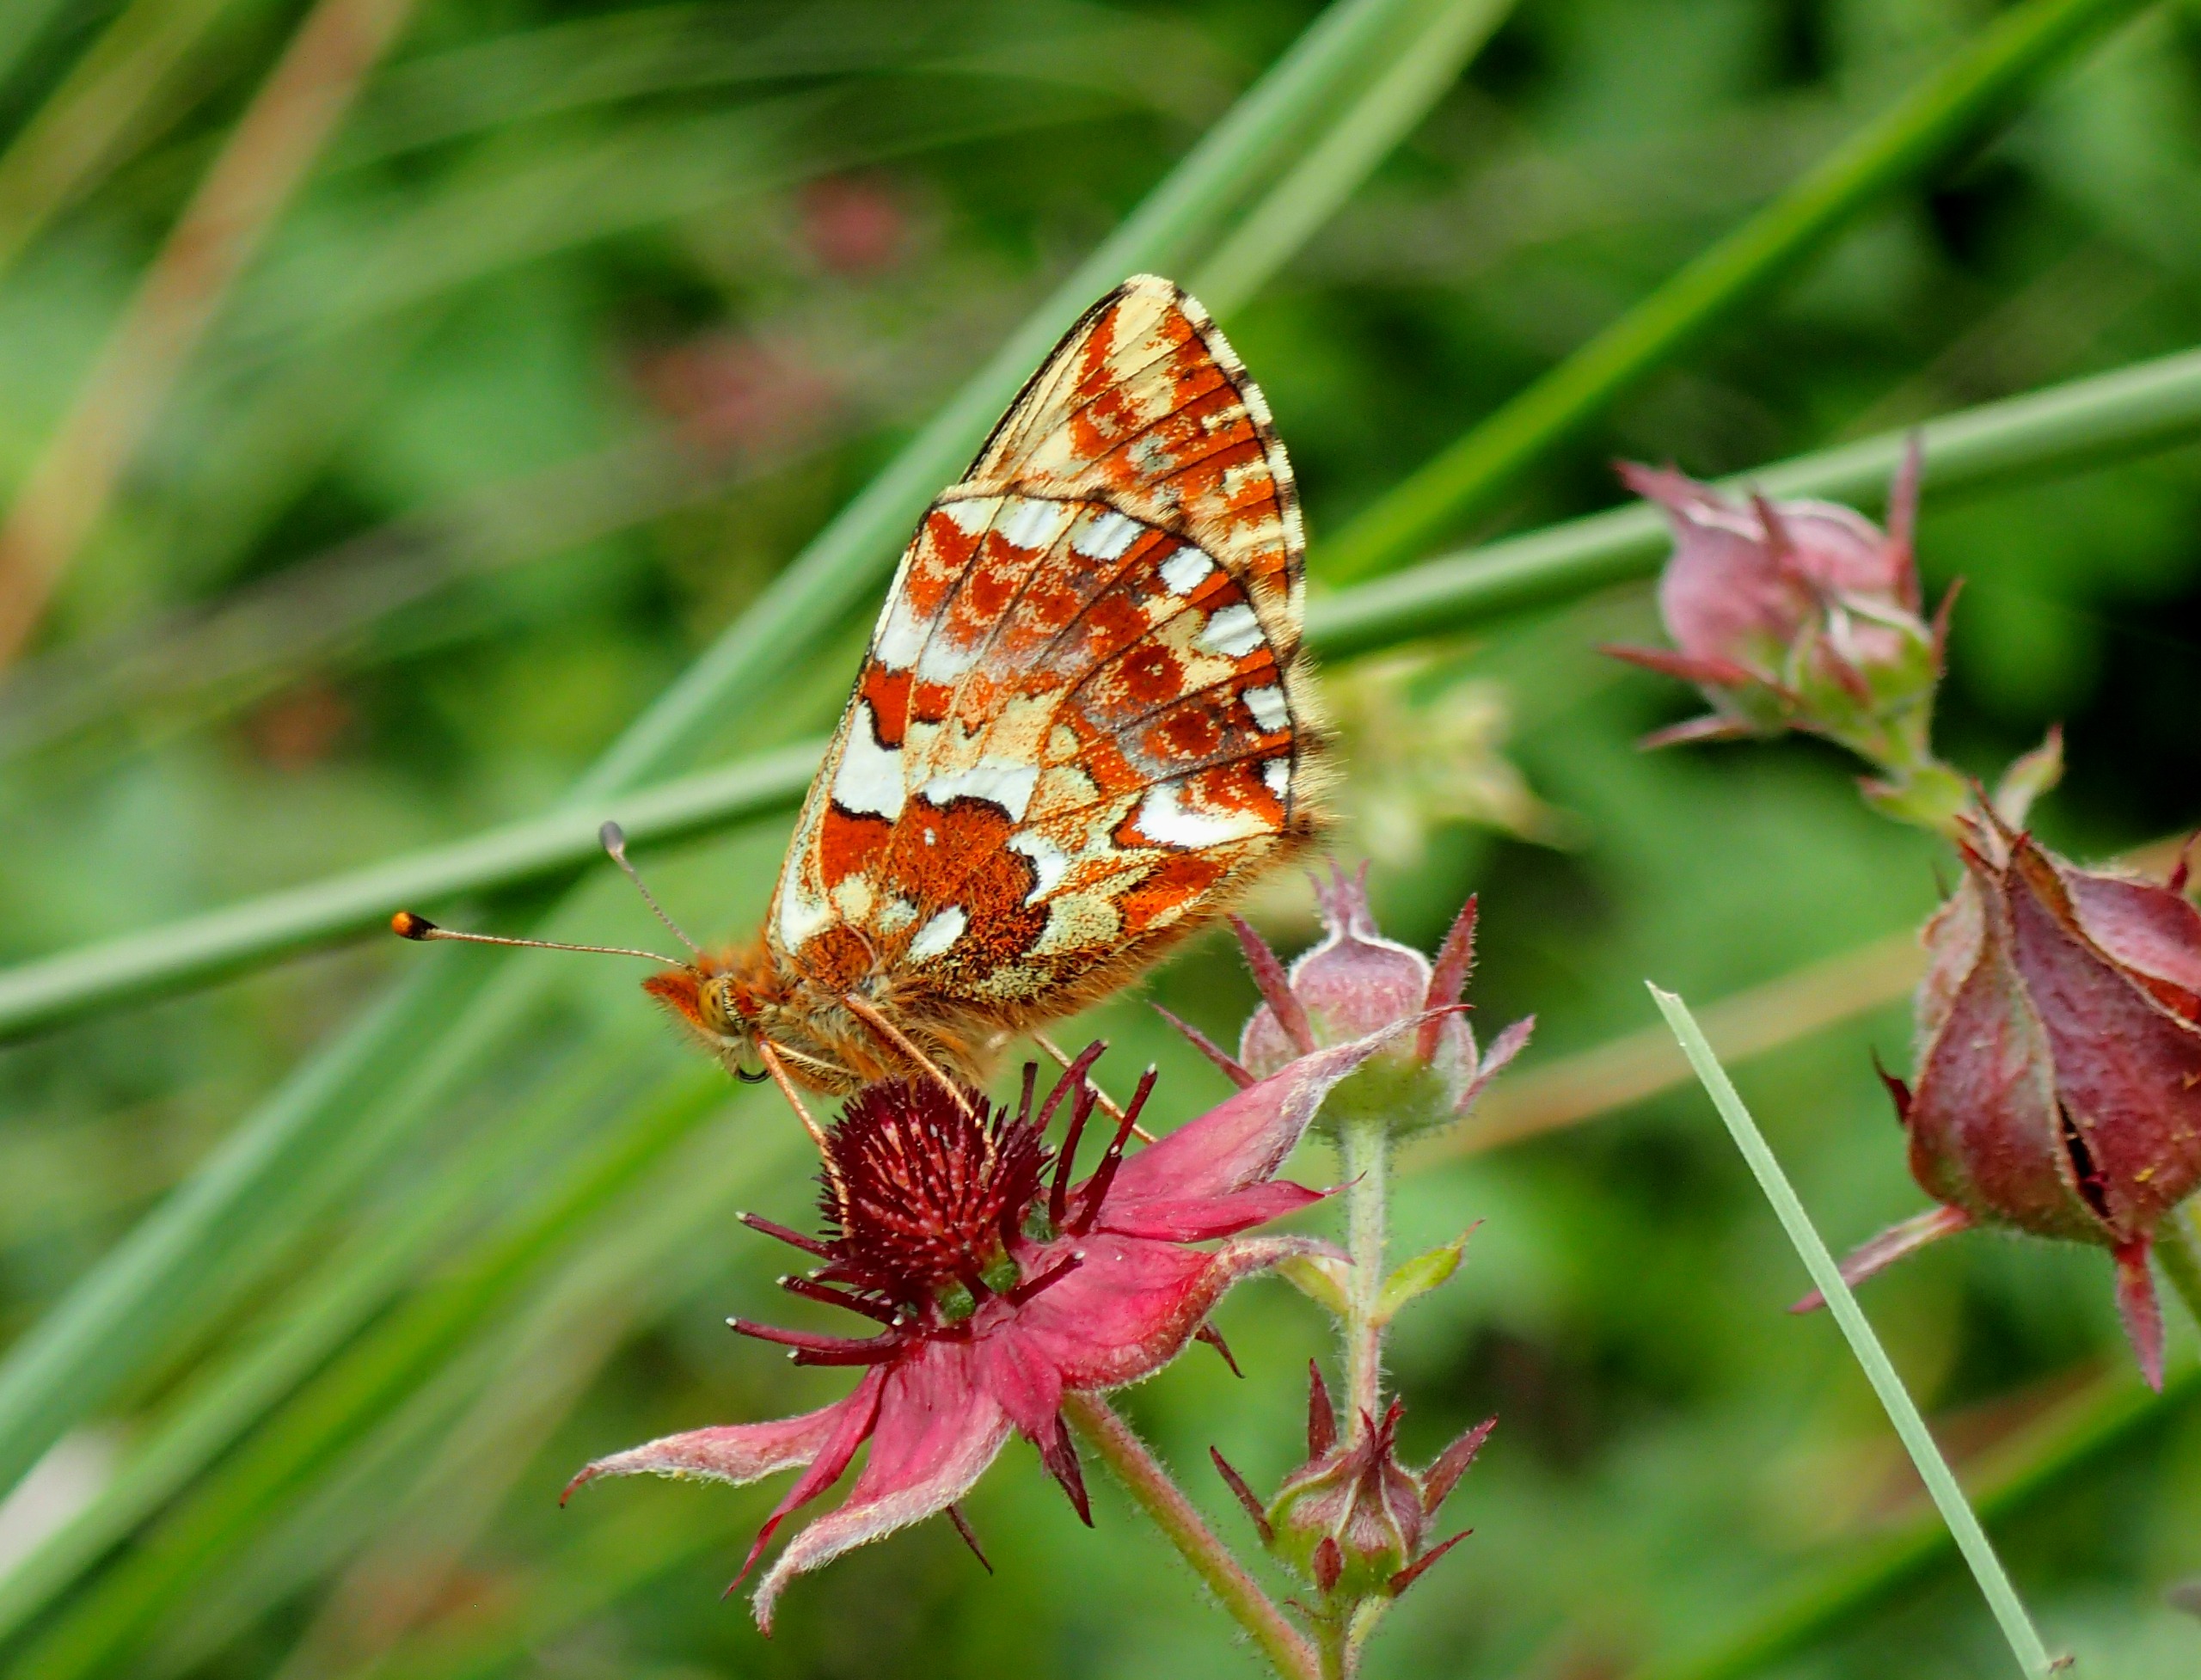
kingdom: Animalia
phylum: Arthropoda
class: Insecta
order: Lepidoptera
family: Nymphalidae
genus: Boloria
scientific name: Boloria aquilonaris
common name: Moseperlemorsommerfugl
